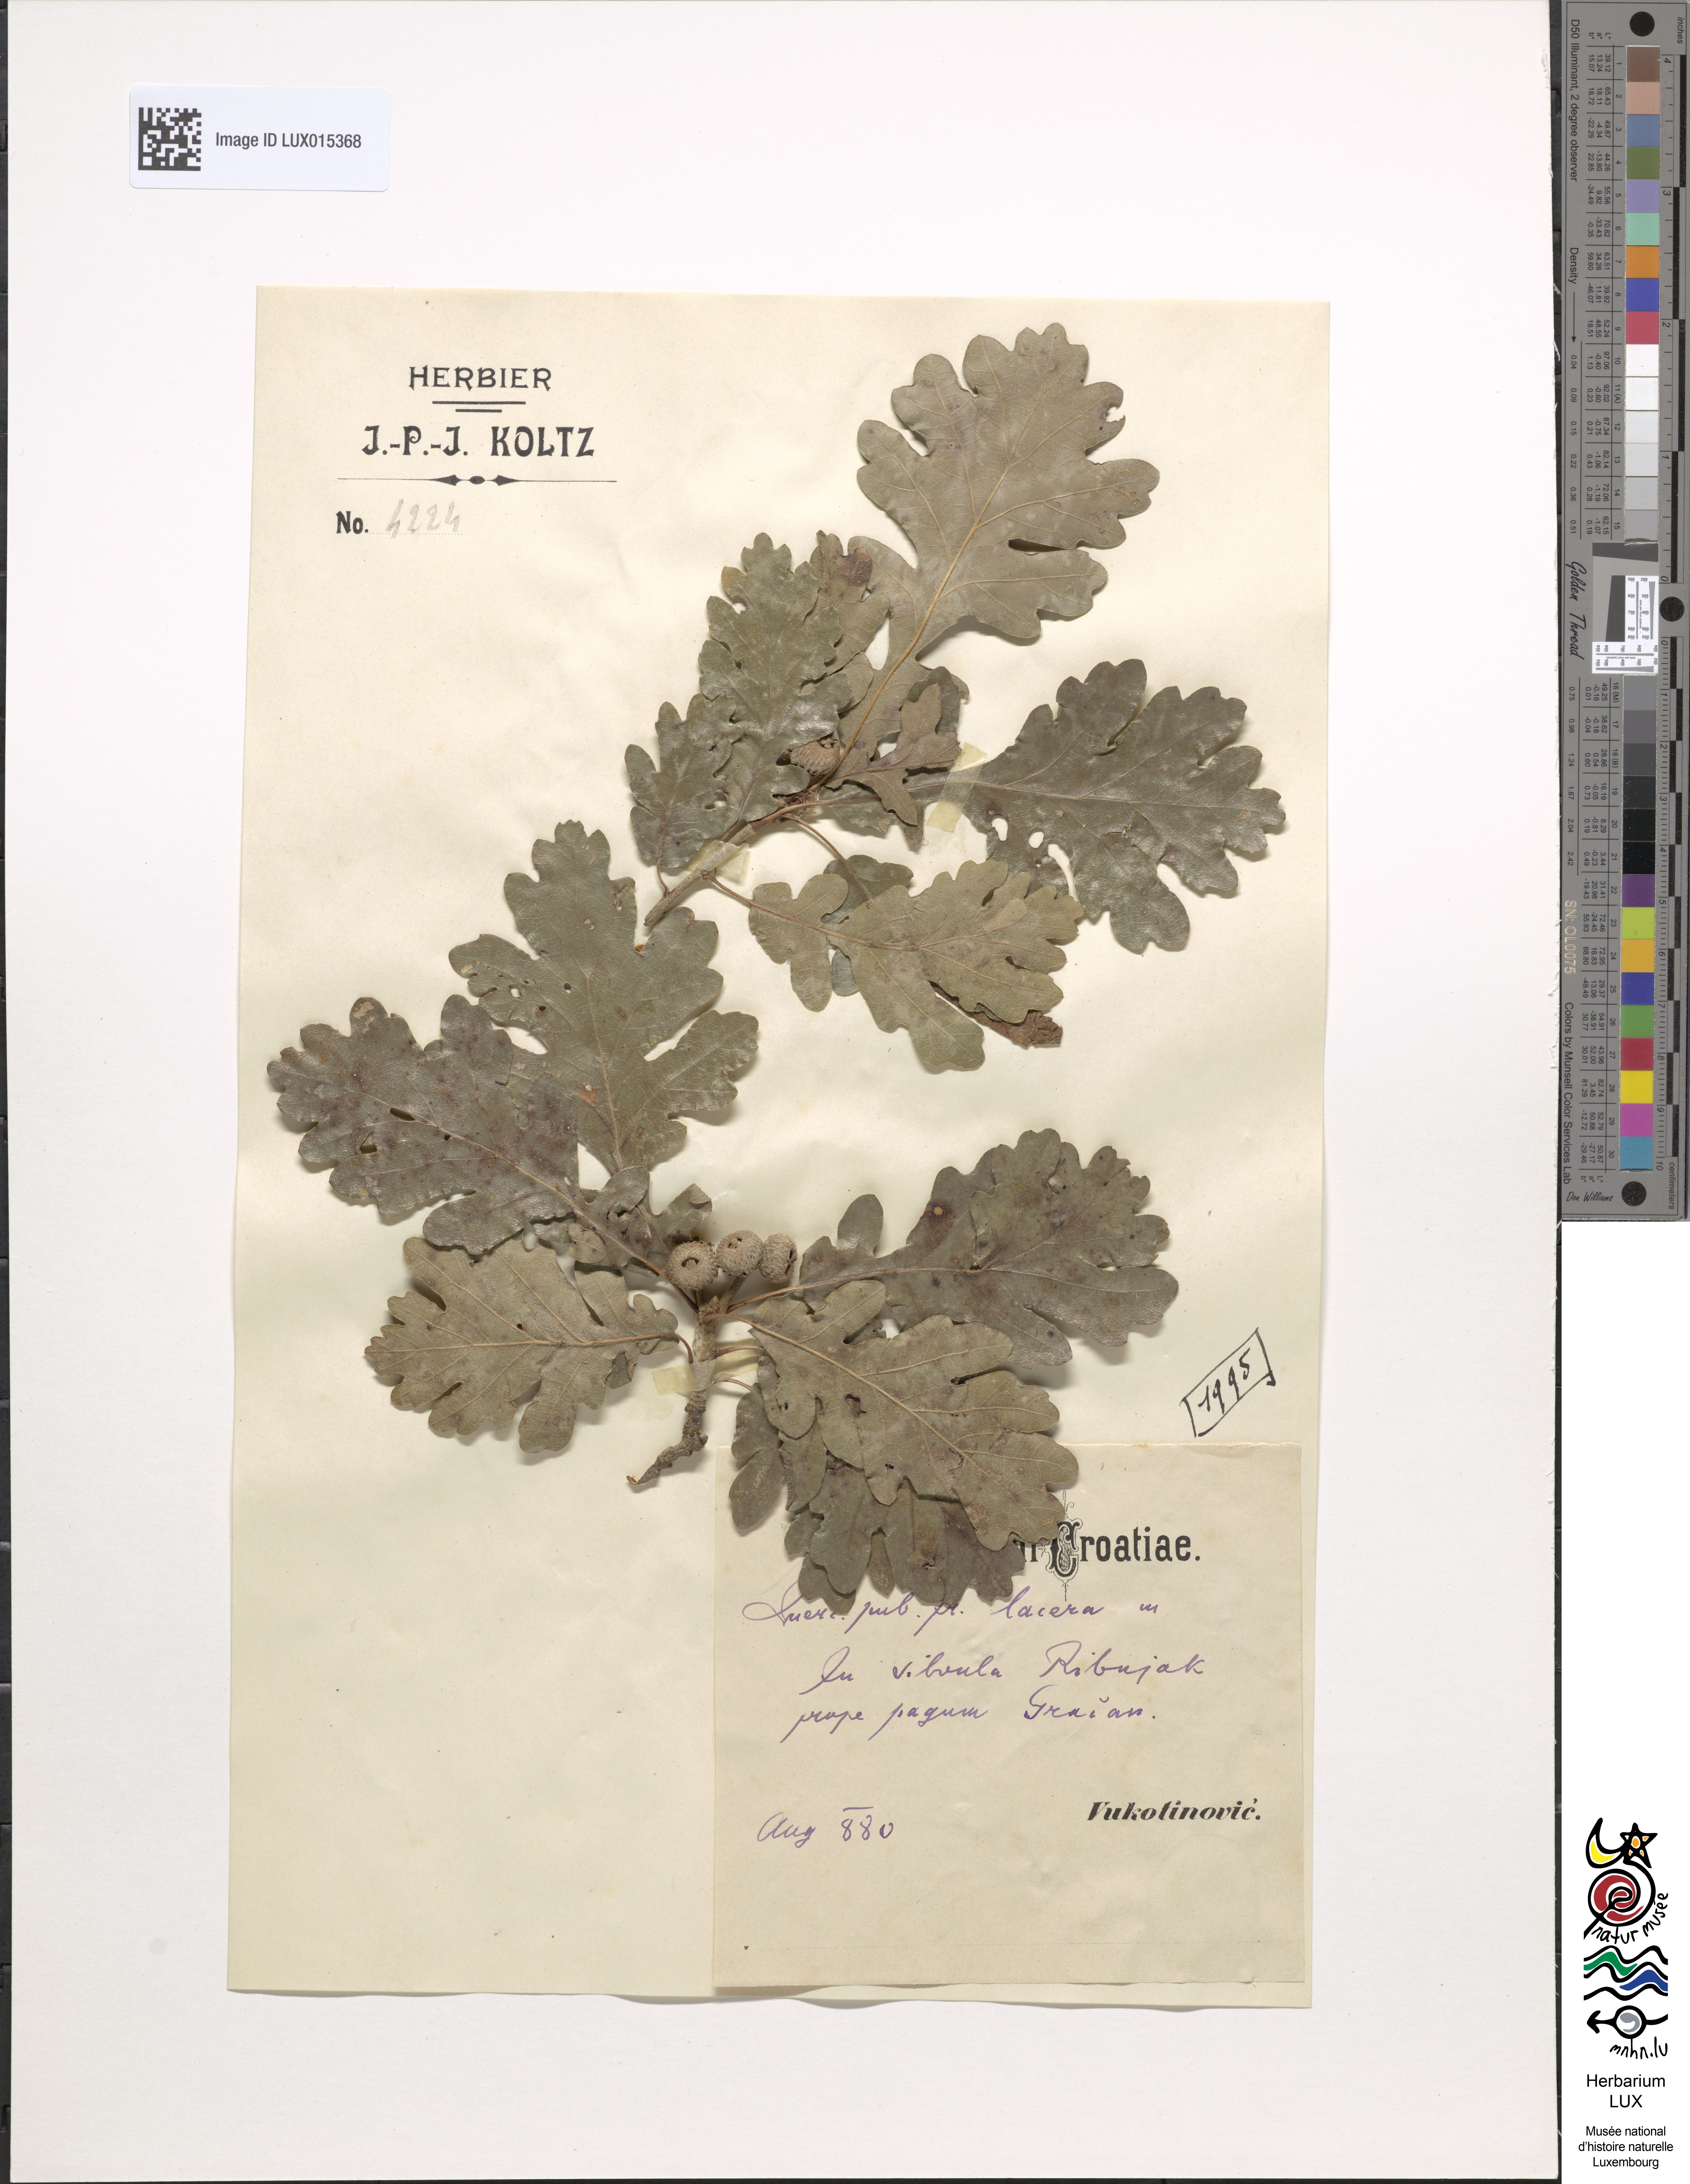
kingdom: Plantae
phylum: Tracheophyta
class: Magnoliopsida
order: Fagales
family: Fagaceae
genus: Quercus
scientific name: Quercus pubescens
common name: Downy oak
